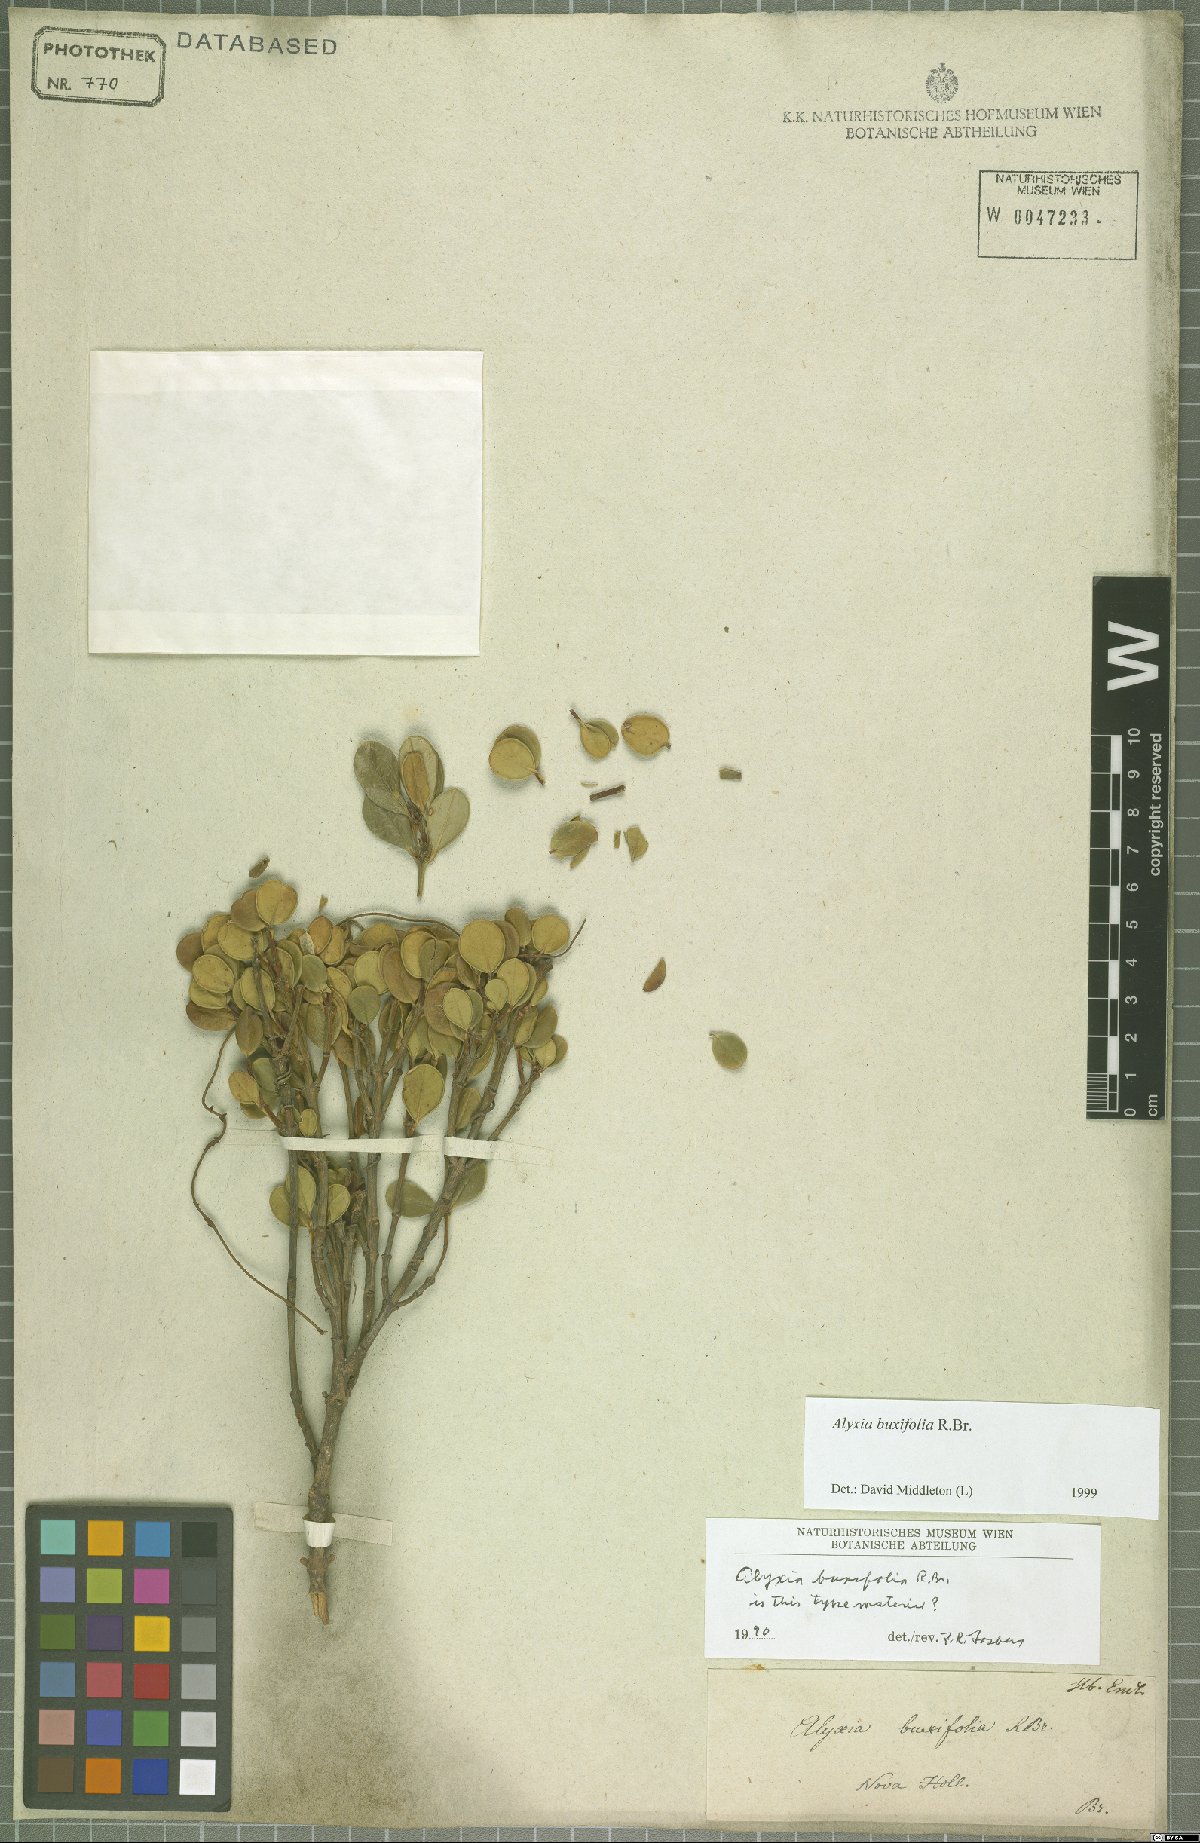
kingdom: Plantae
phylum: Tracheophyta
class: Magnoliopsida
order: Gentianales
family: Apocynaceae
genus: Alyxia
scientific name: Alyxia buxifolia
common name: Dysentery-bush
